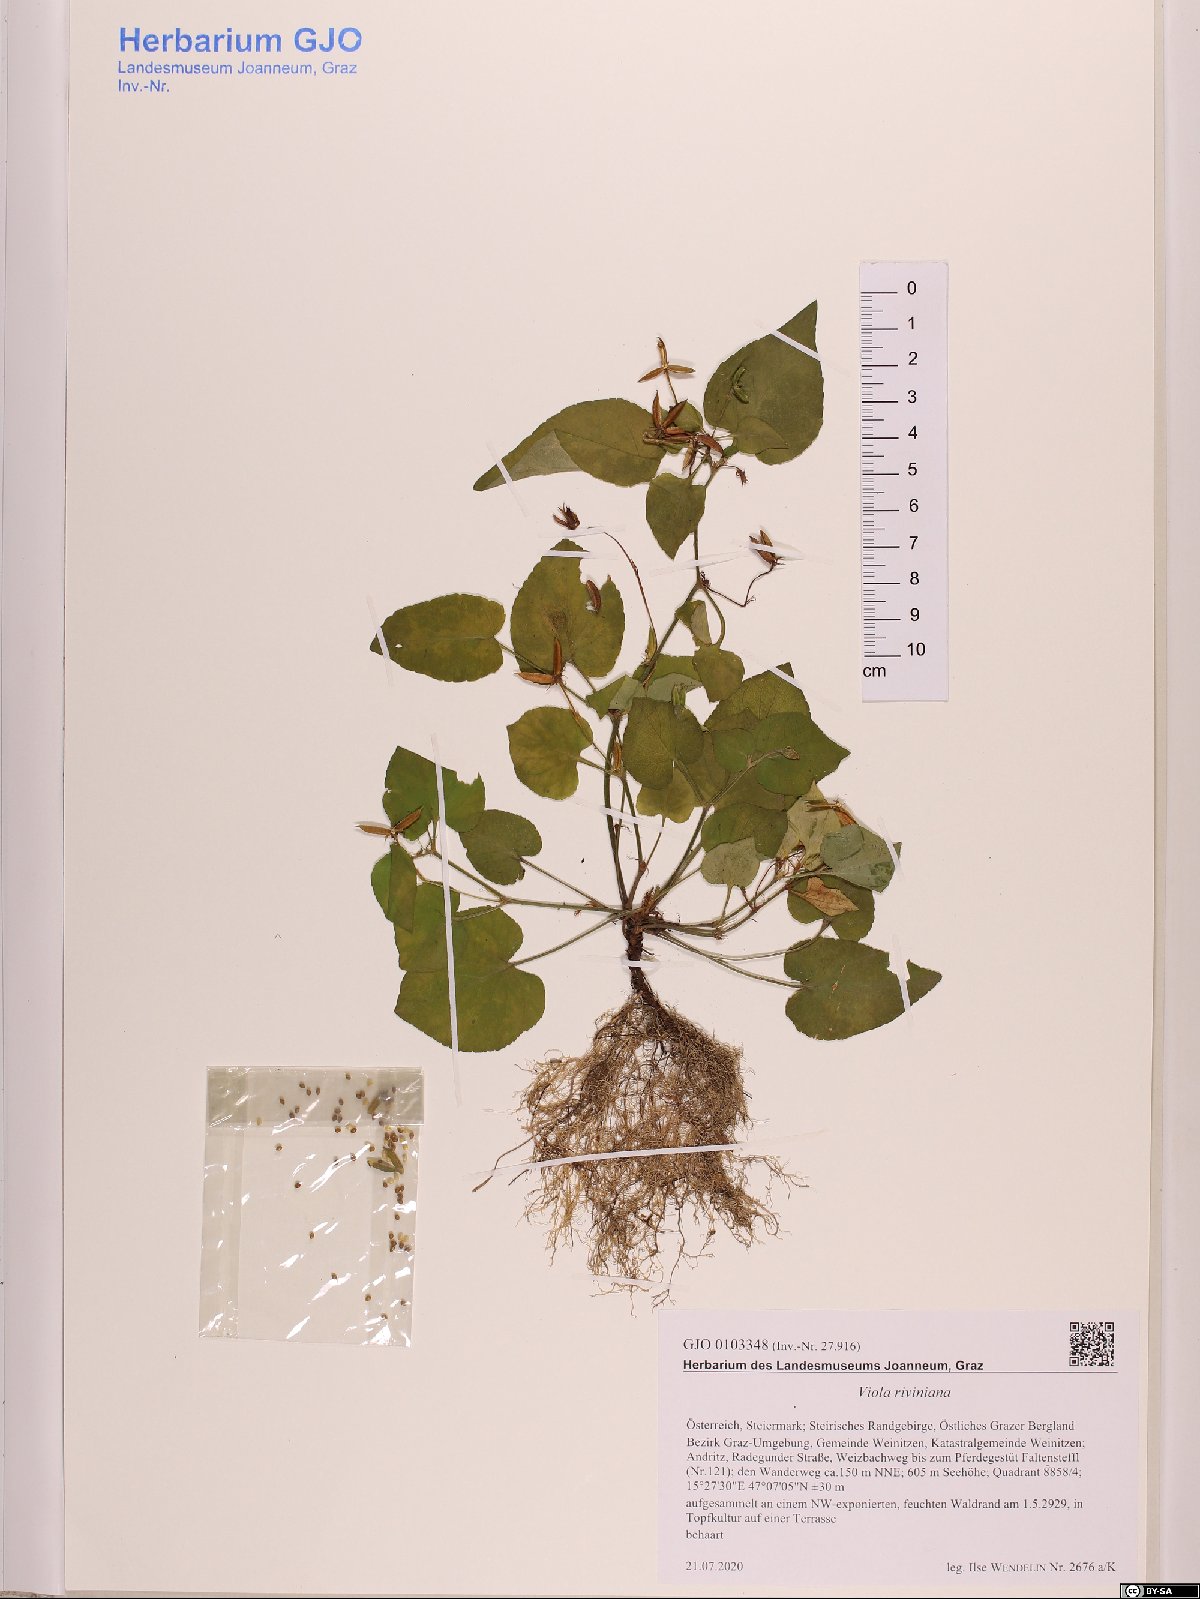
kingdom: Plantae
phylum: Tracheophyta
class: Magnoliopsida
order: Malpighiales
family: Violaceae
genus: Viola
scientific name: Viola riviniana
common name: Common dog-violet
